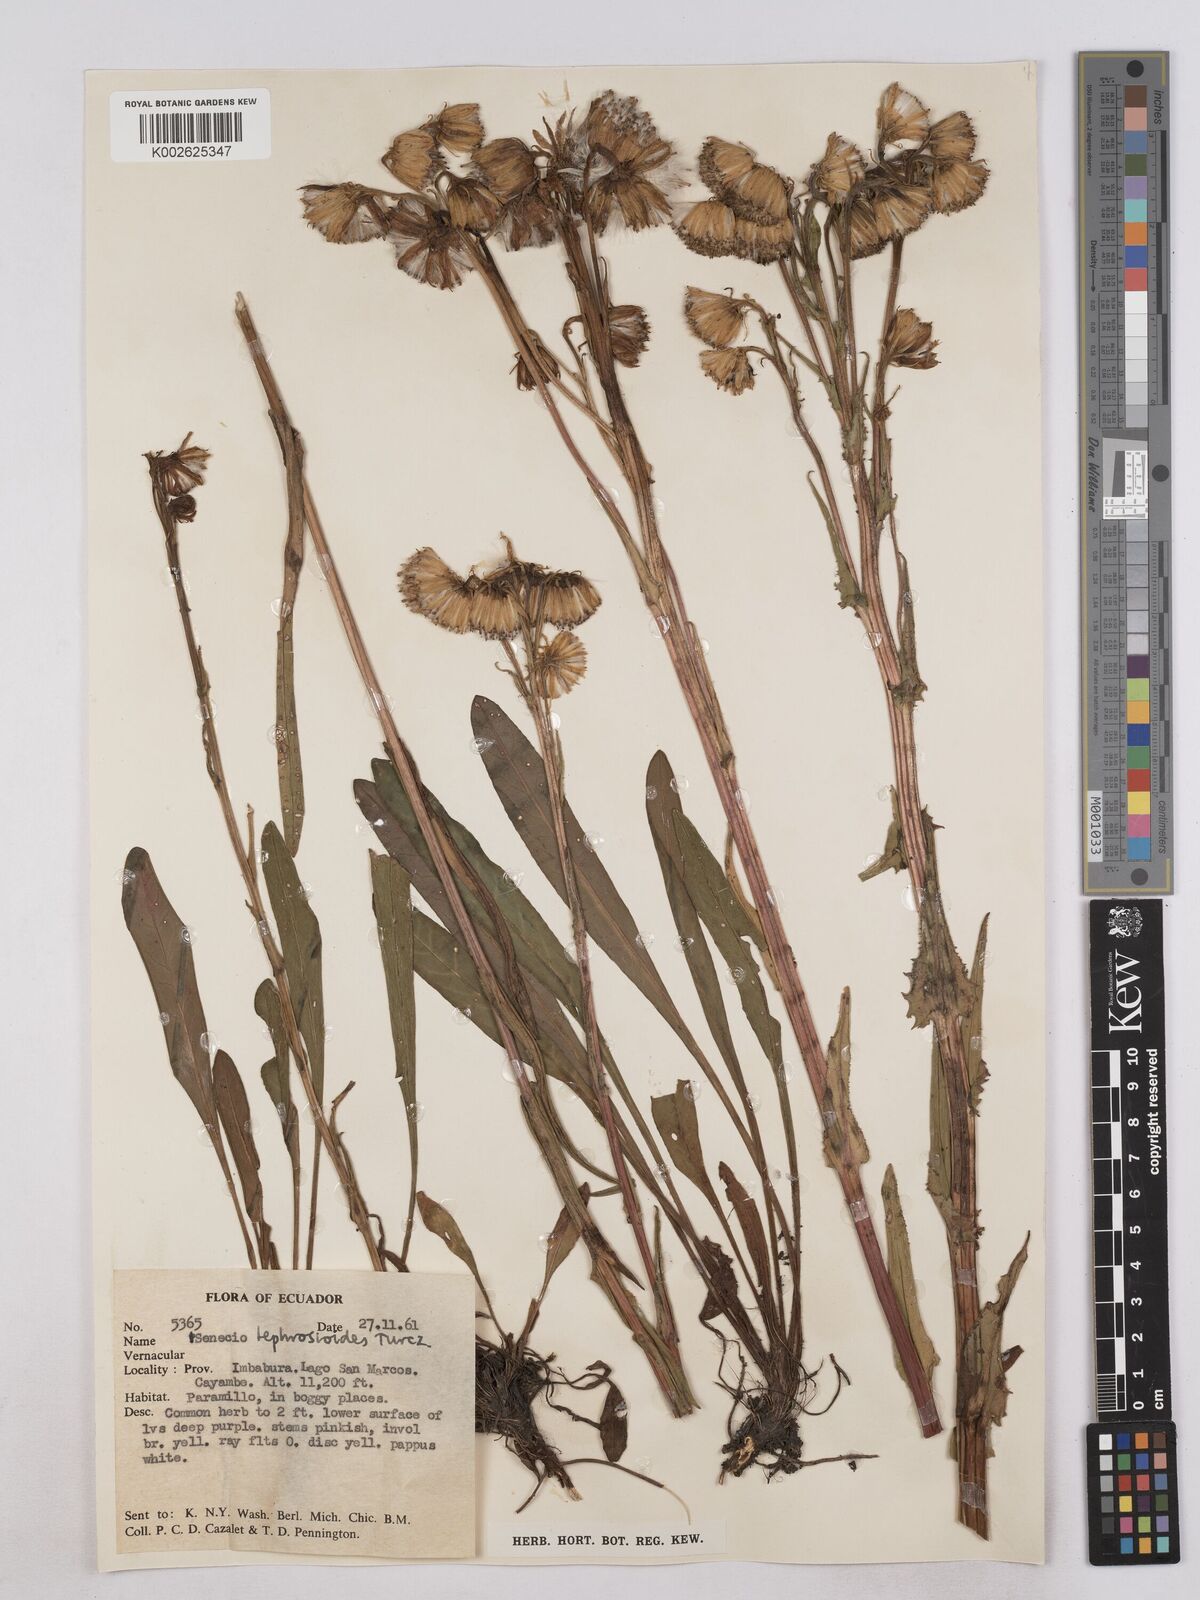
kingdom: Plantae
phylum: Tracheophyta
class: Magnoliopsida
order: Asterales
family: Asteraceae
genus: Senecio
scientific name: Senecio tephrosioides
